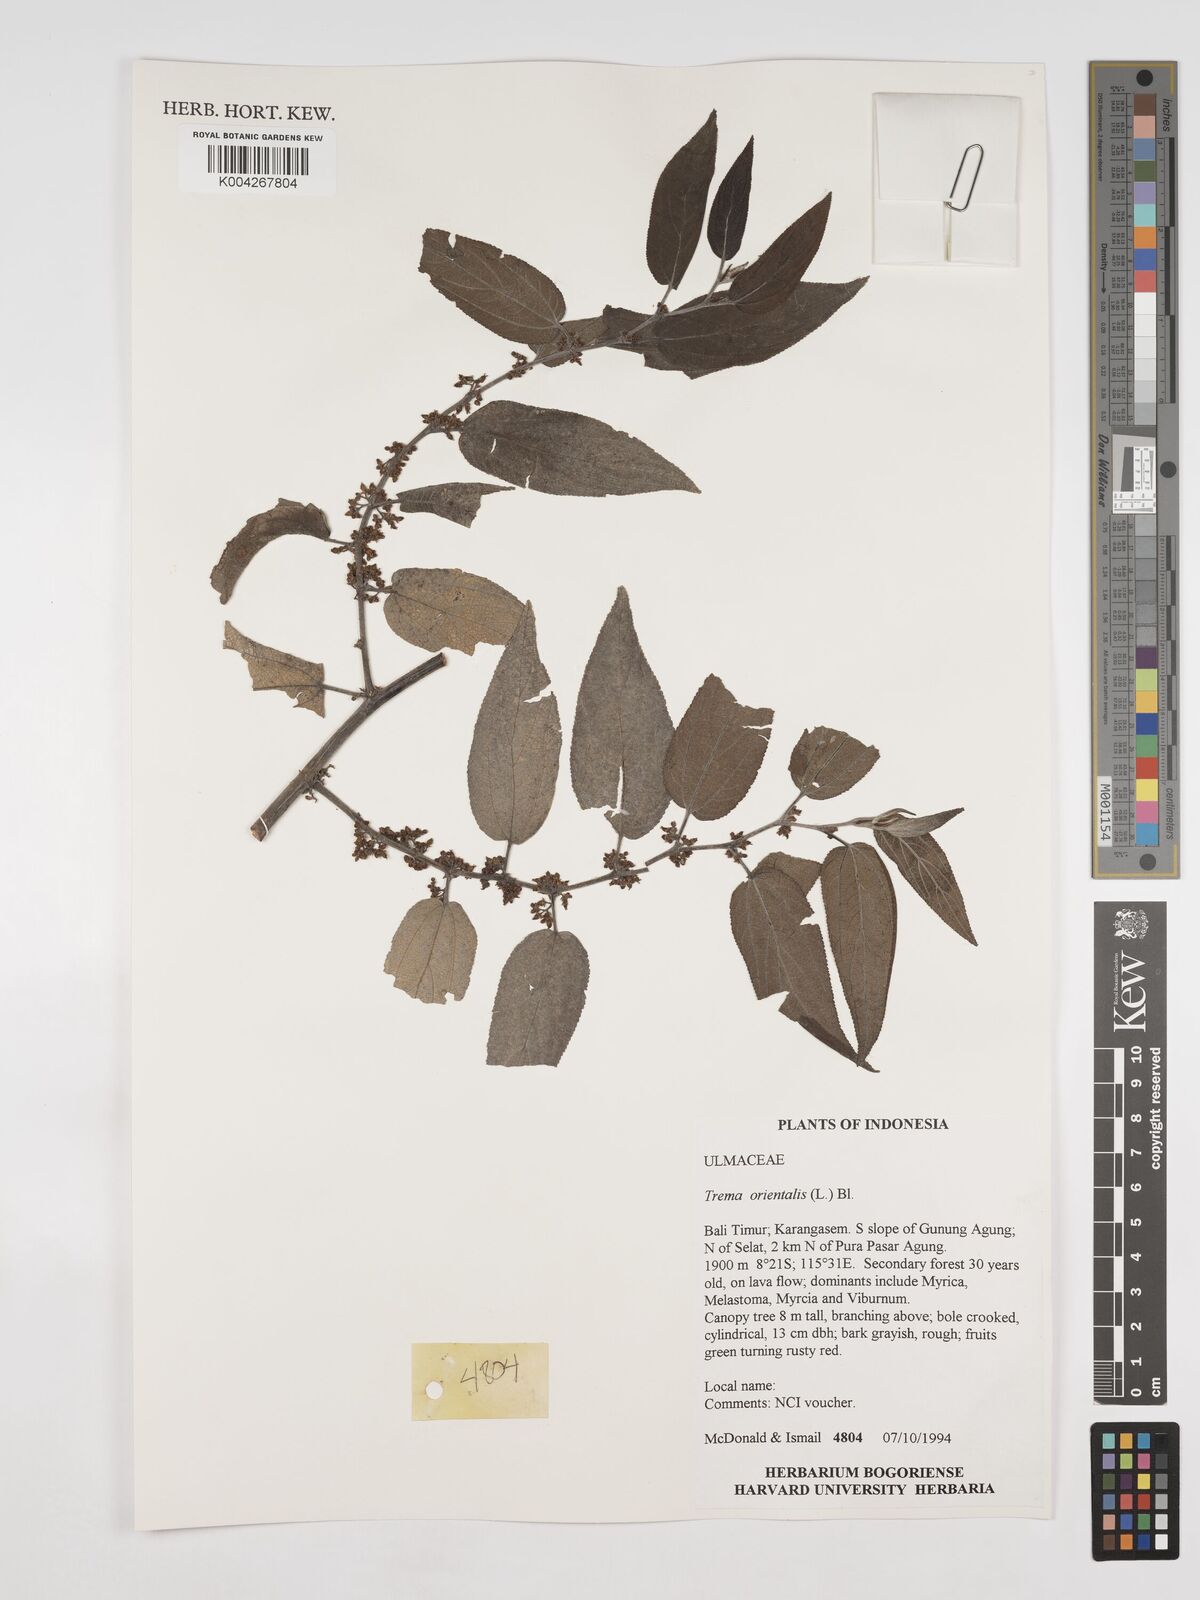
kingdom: Plantae
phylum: Tracheophyta
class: Magnoliopsida
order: Rosales
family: Cannabaceae
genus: Trema
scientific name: Trema orientale
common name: Indian charcoal tree
